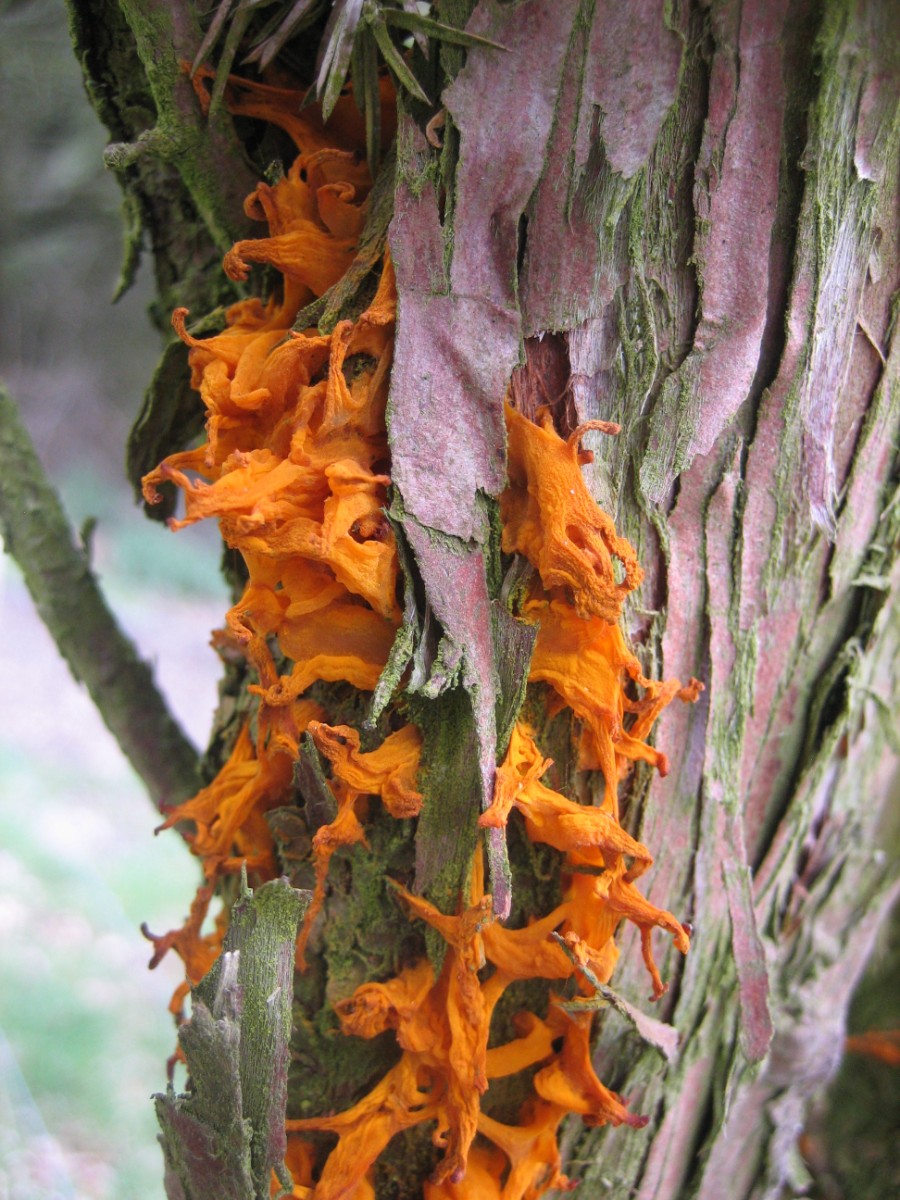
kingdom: Fungi
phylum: Basidiomycota
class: Pucciniomycetes
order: Pucciniales
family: Gymnosporangiaceae
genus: Gymnosporangium
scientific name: Gymnosporangium clavariiforme
